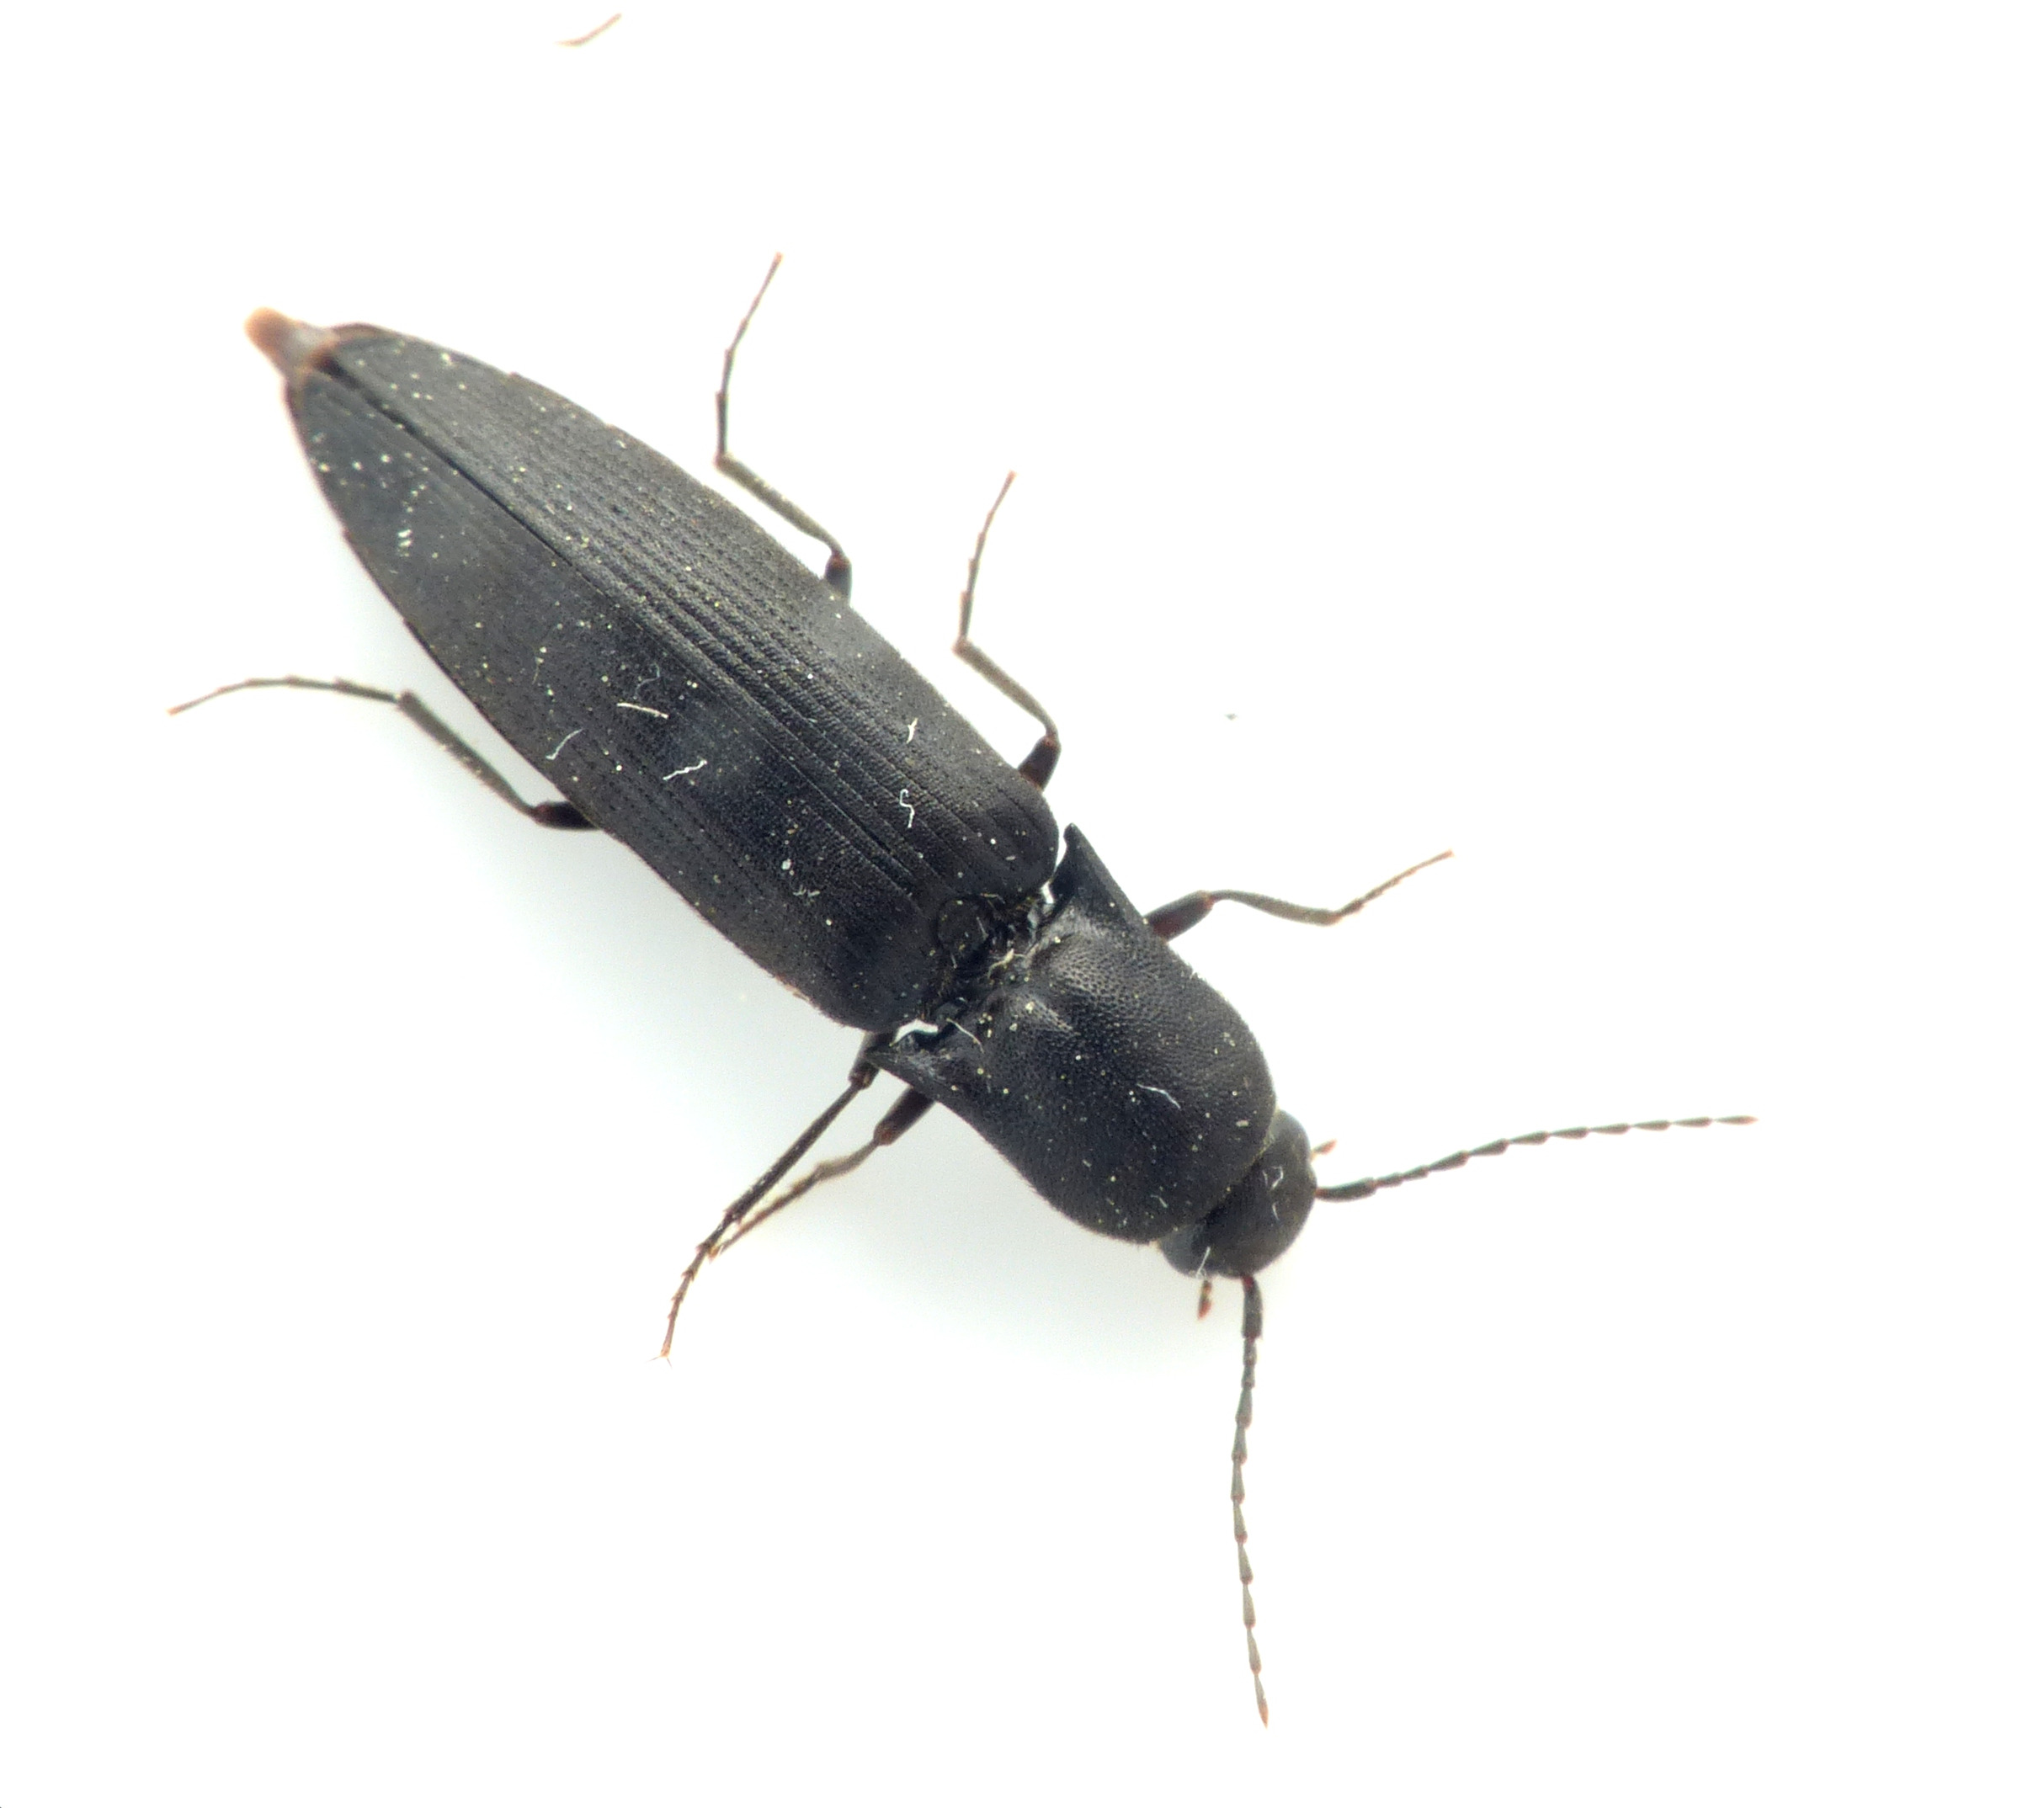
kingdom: Animalia
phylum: Arthropoda
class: Insecta
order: Coleoptera
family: Elateridae
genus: Ectinus
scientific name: Ectinus aterrimus
